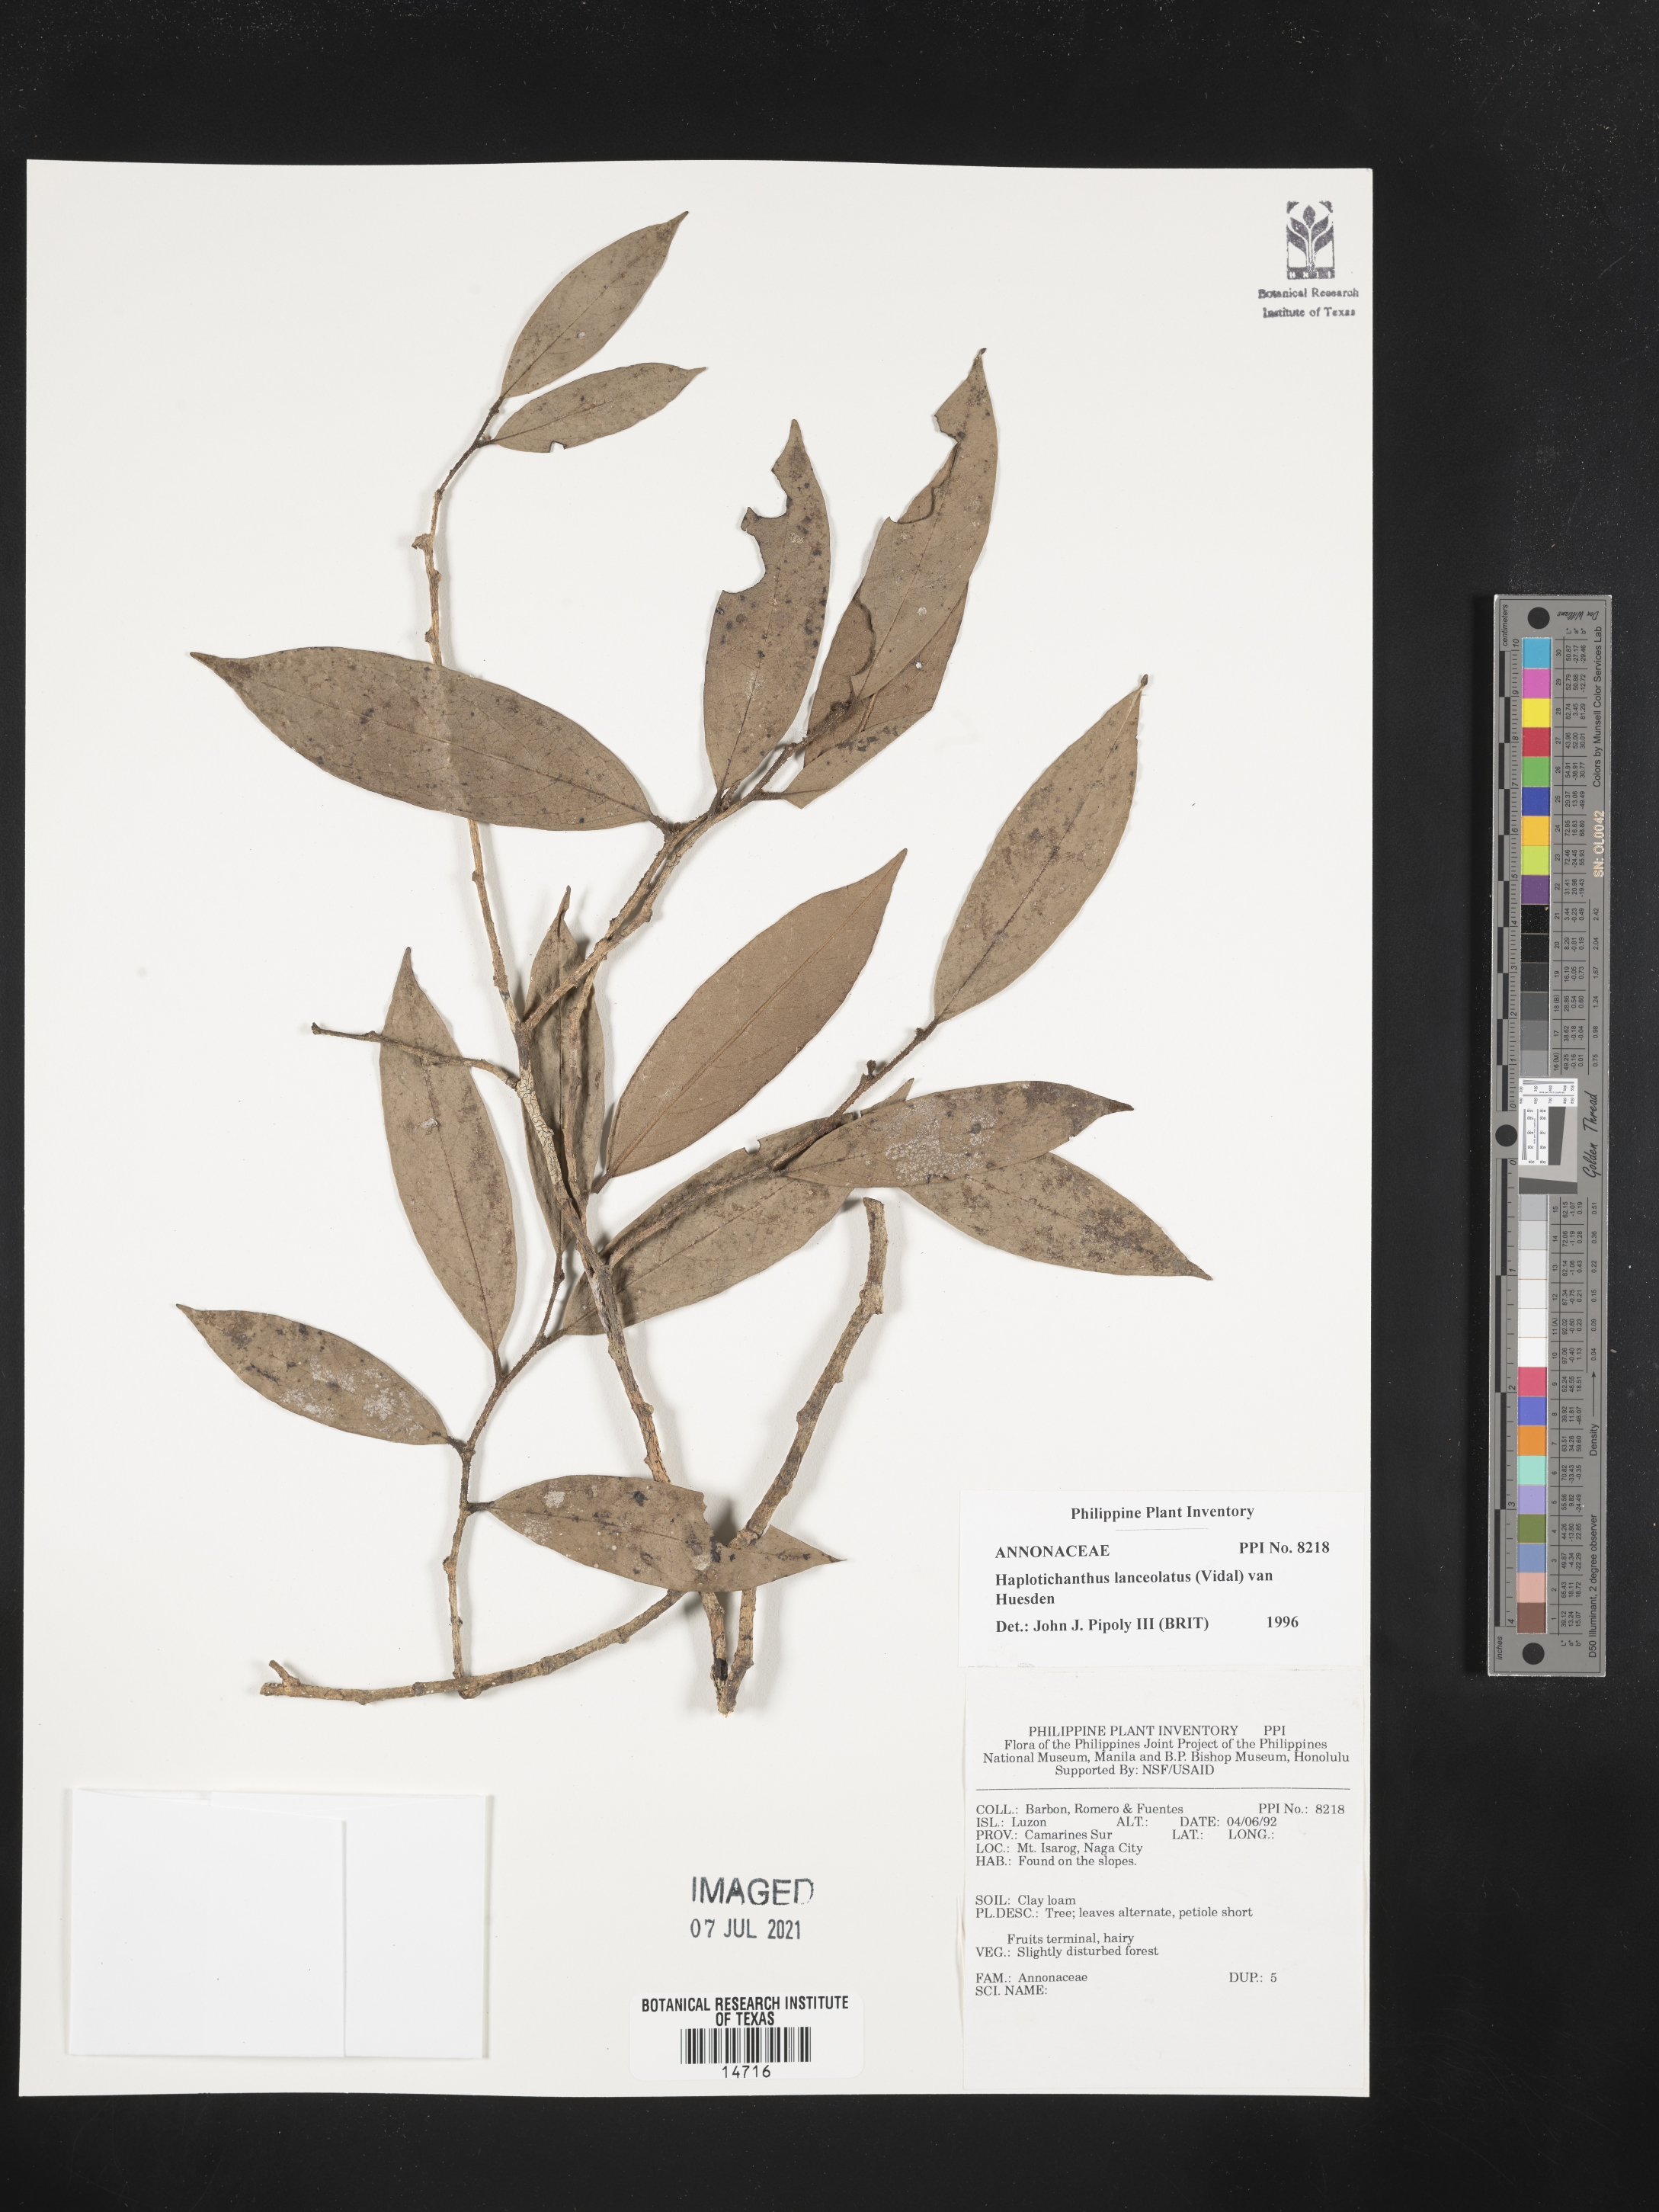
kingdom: Plantae
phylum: Tracheophyta
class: Magnoliopsida
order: Magnoliales
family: Annonaceae
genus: Haplostichanthus
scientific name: Haplostichanthus lanceolata
